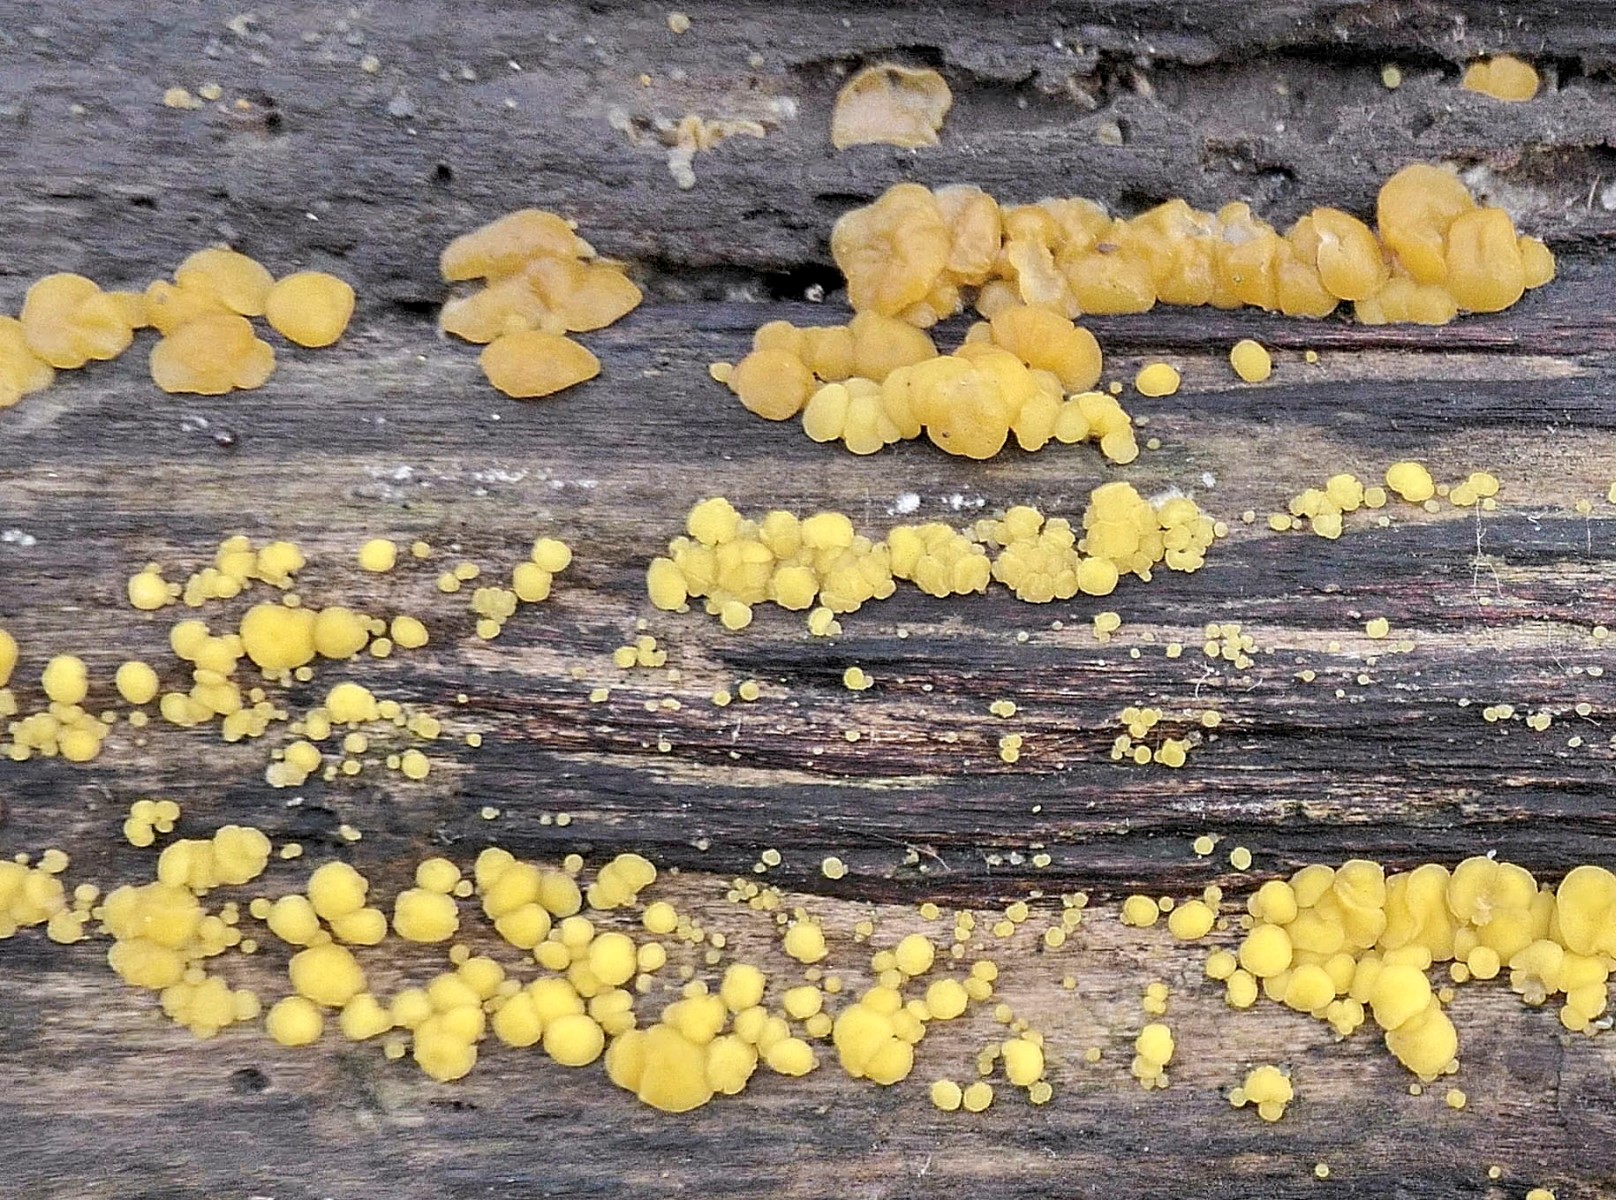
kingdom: Fungi
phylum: Ascomycota
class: Leotiomycetes
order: Helotiales
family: Pezizellaceae
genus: Calycina
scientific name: Calycina citrina
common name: almindelig gulskive
